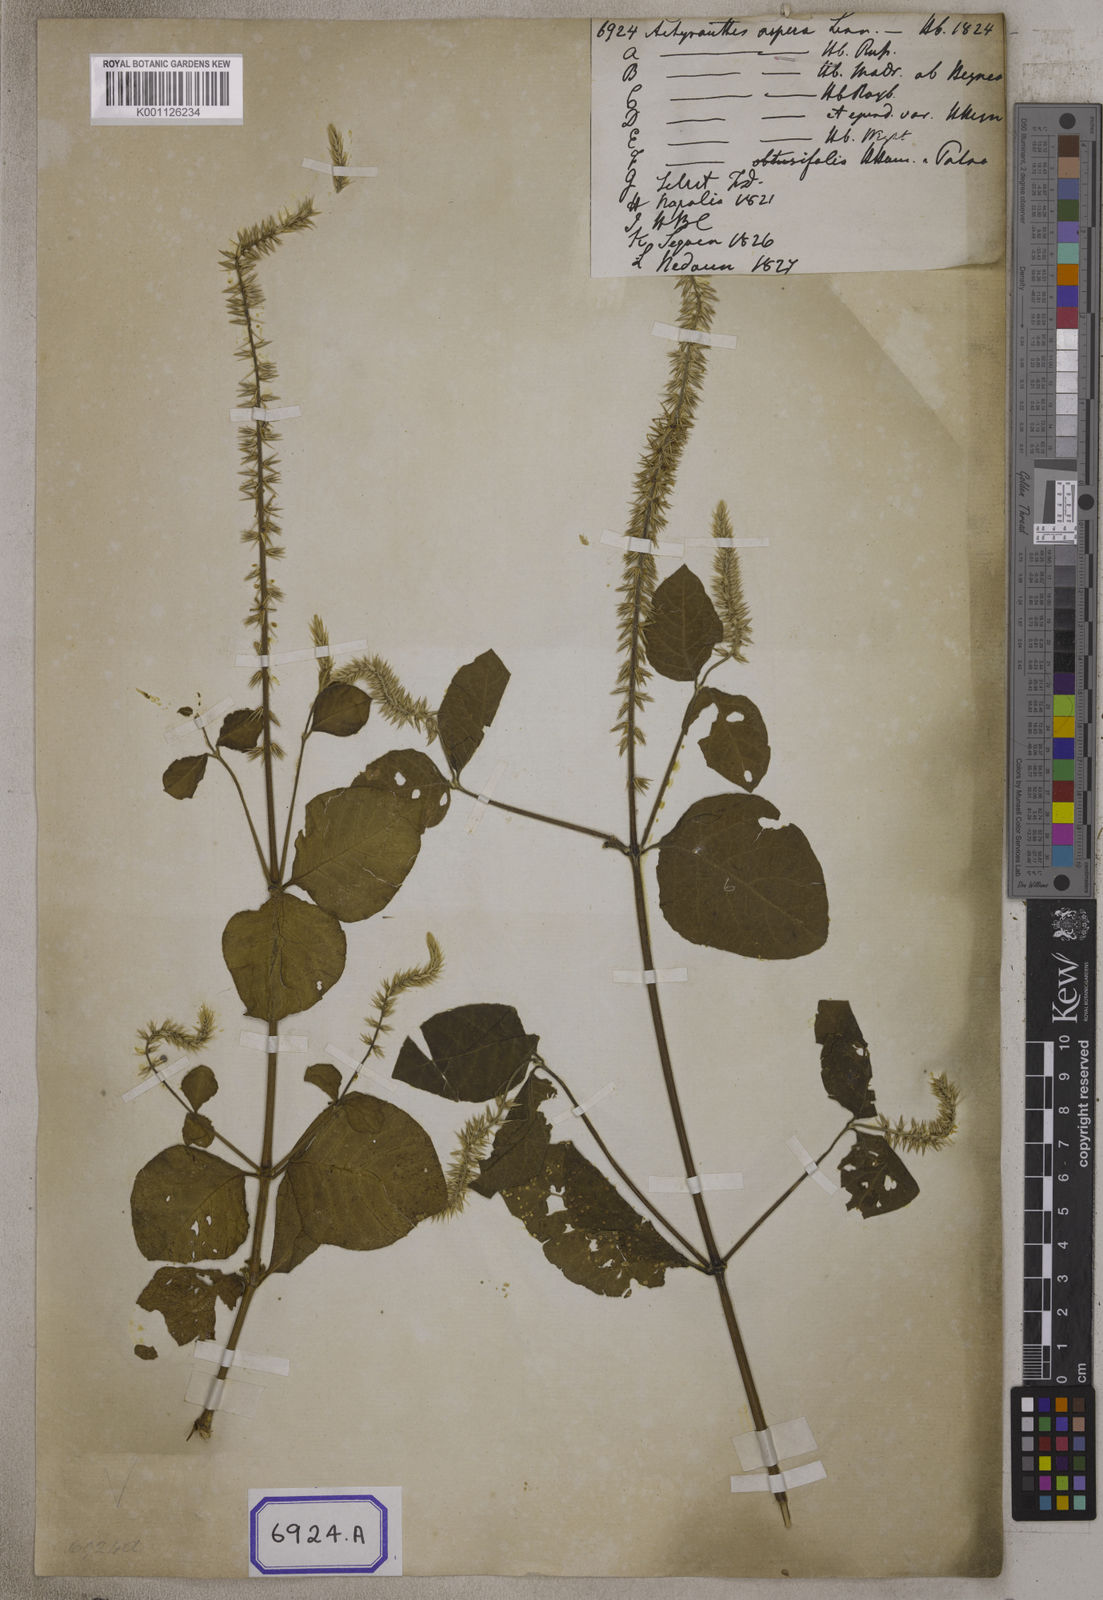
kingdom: Plantae
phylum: Tracheophyta
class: Magnoliopsida
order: Caryophyllales
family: Amaranthaceae
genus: Achyranthes
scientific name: Achyranthes
